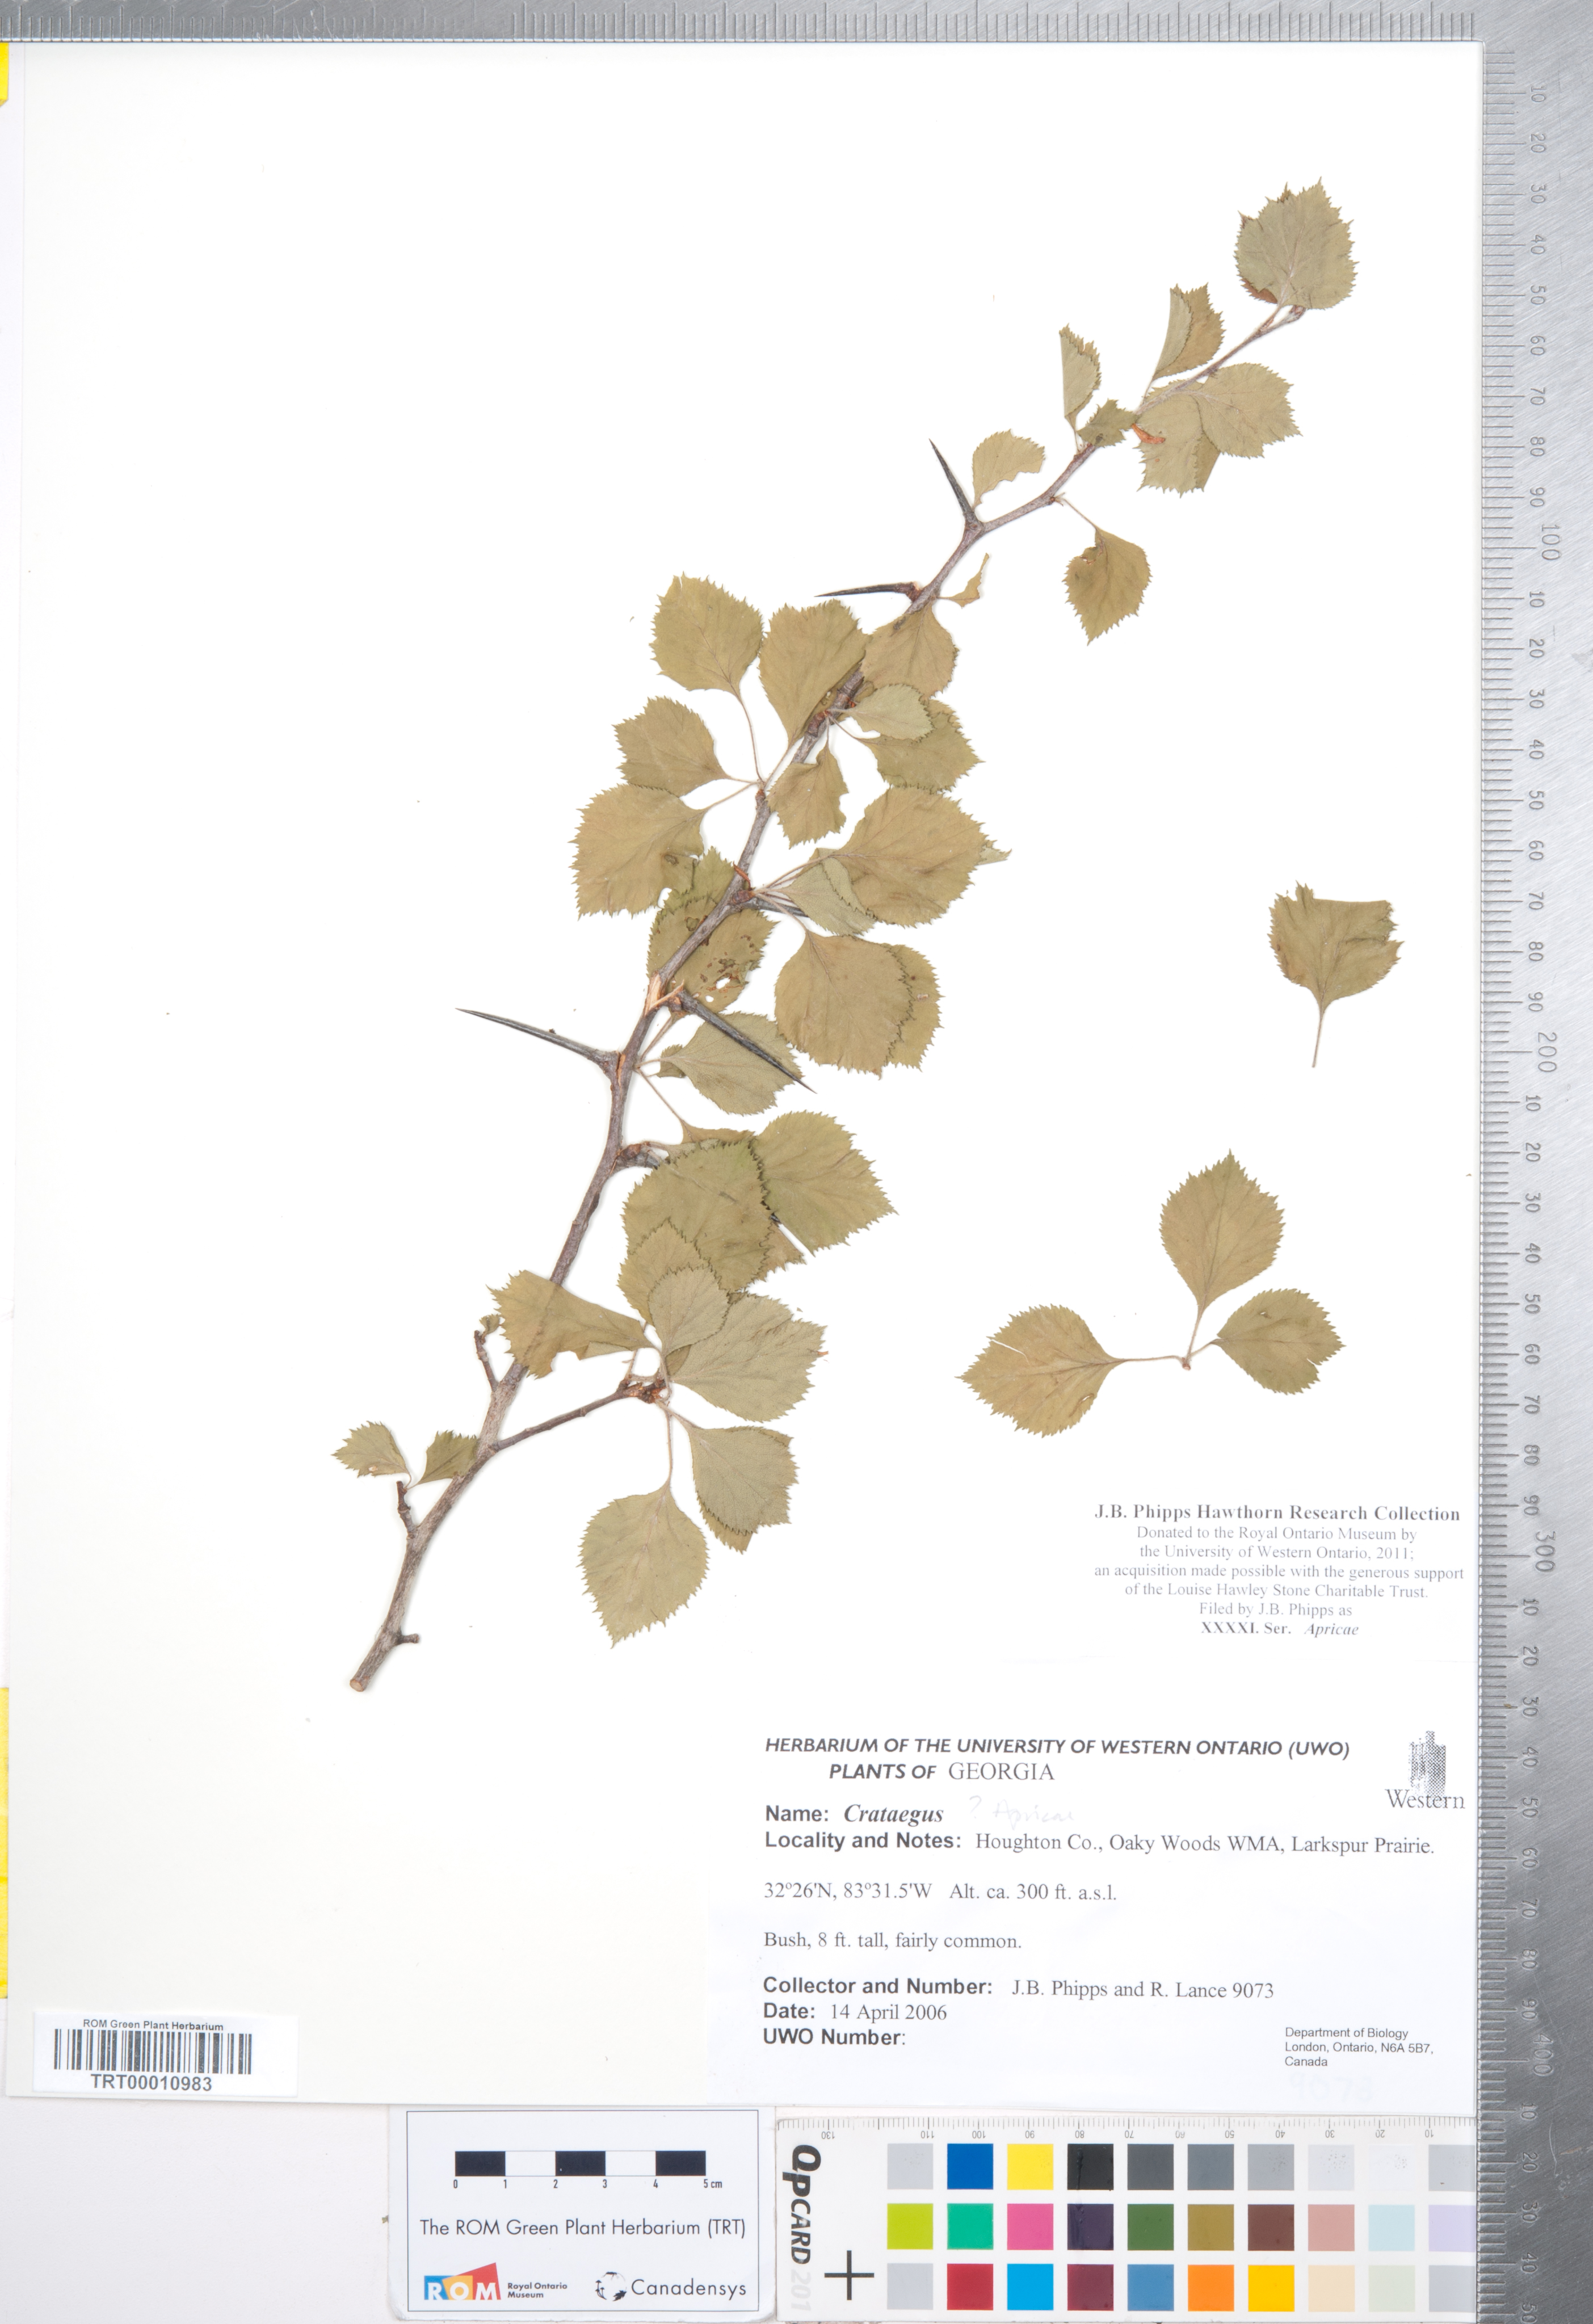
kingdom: Plantae
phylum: Tracheophyta
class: Magnoliopsida
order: Rosales
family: Rosaceae
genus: Crataegus
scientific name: Crataegus
